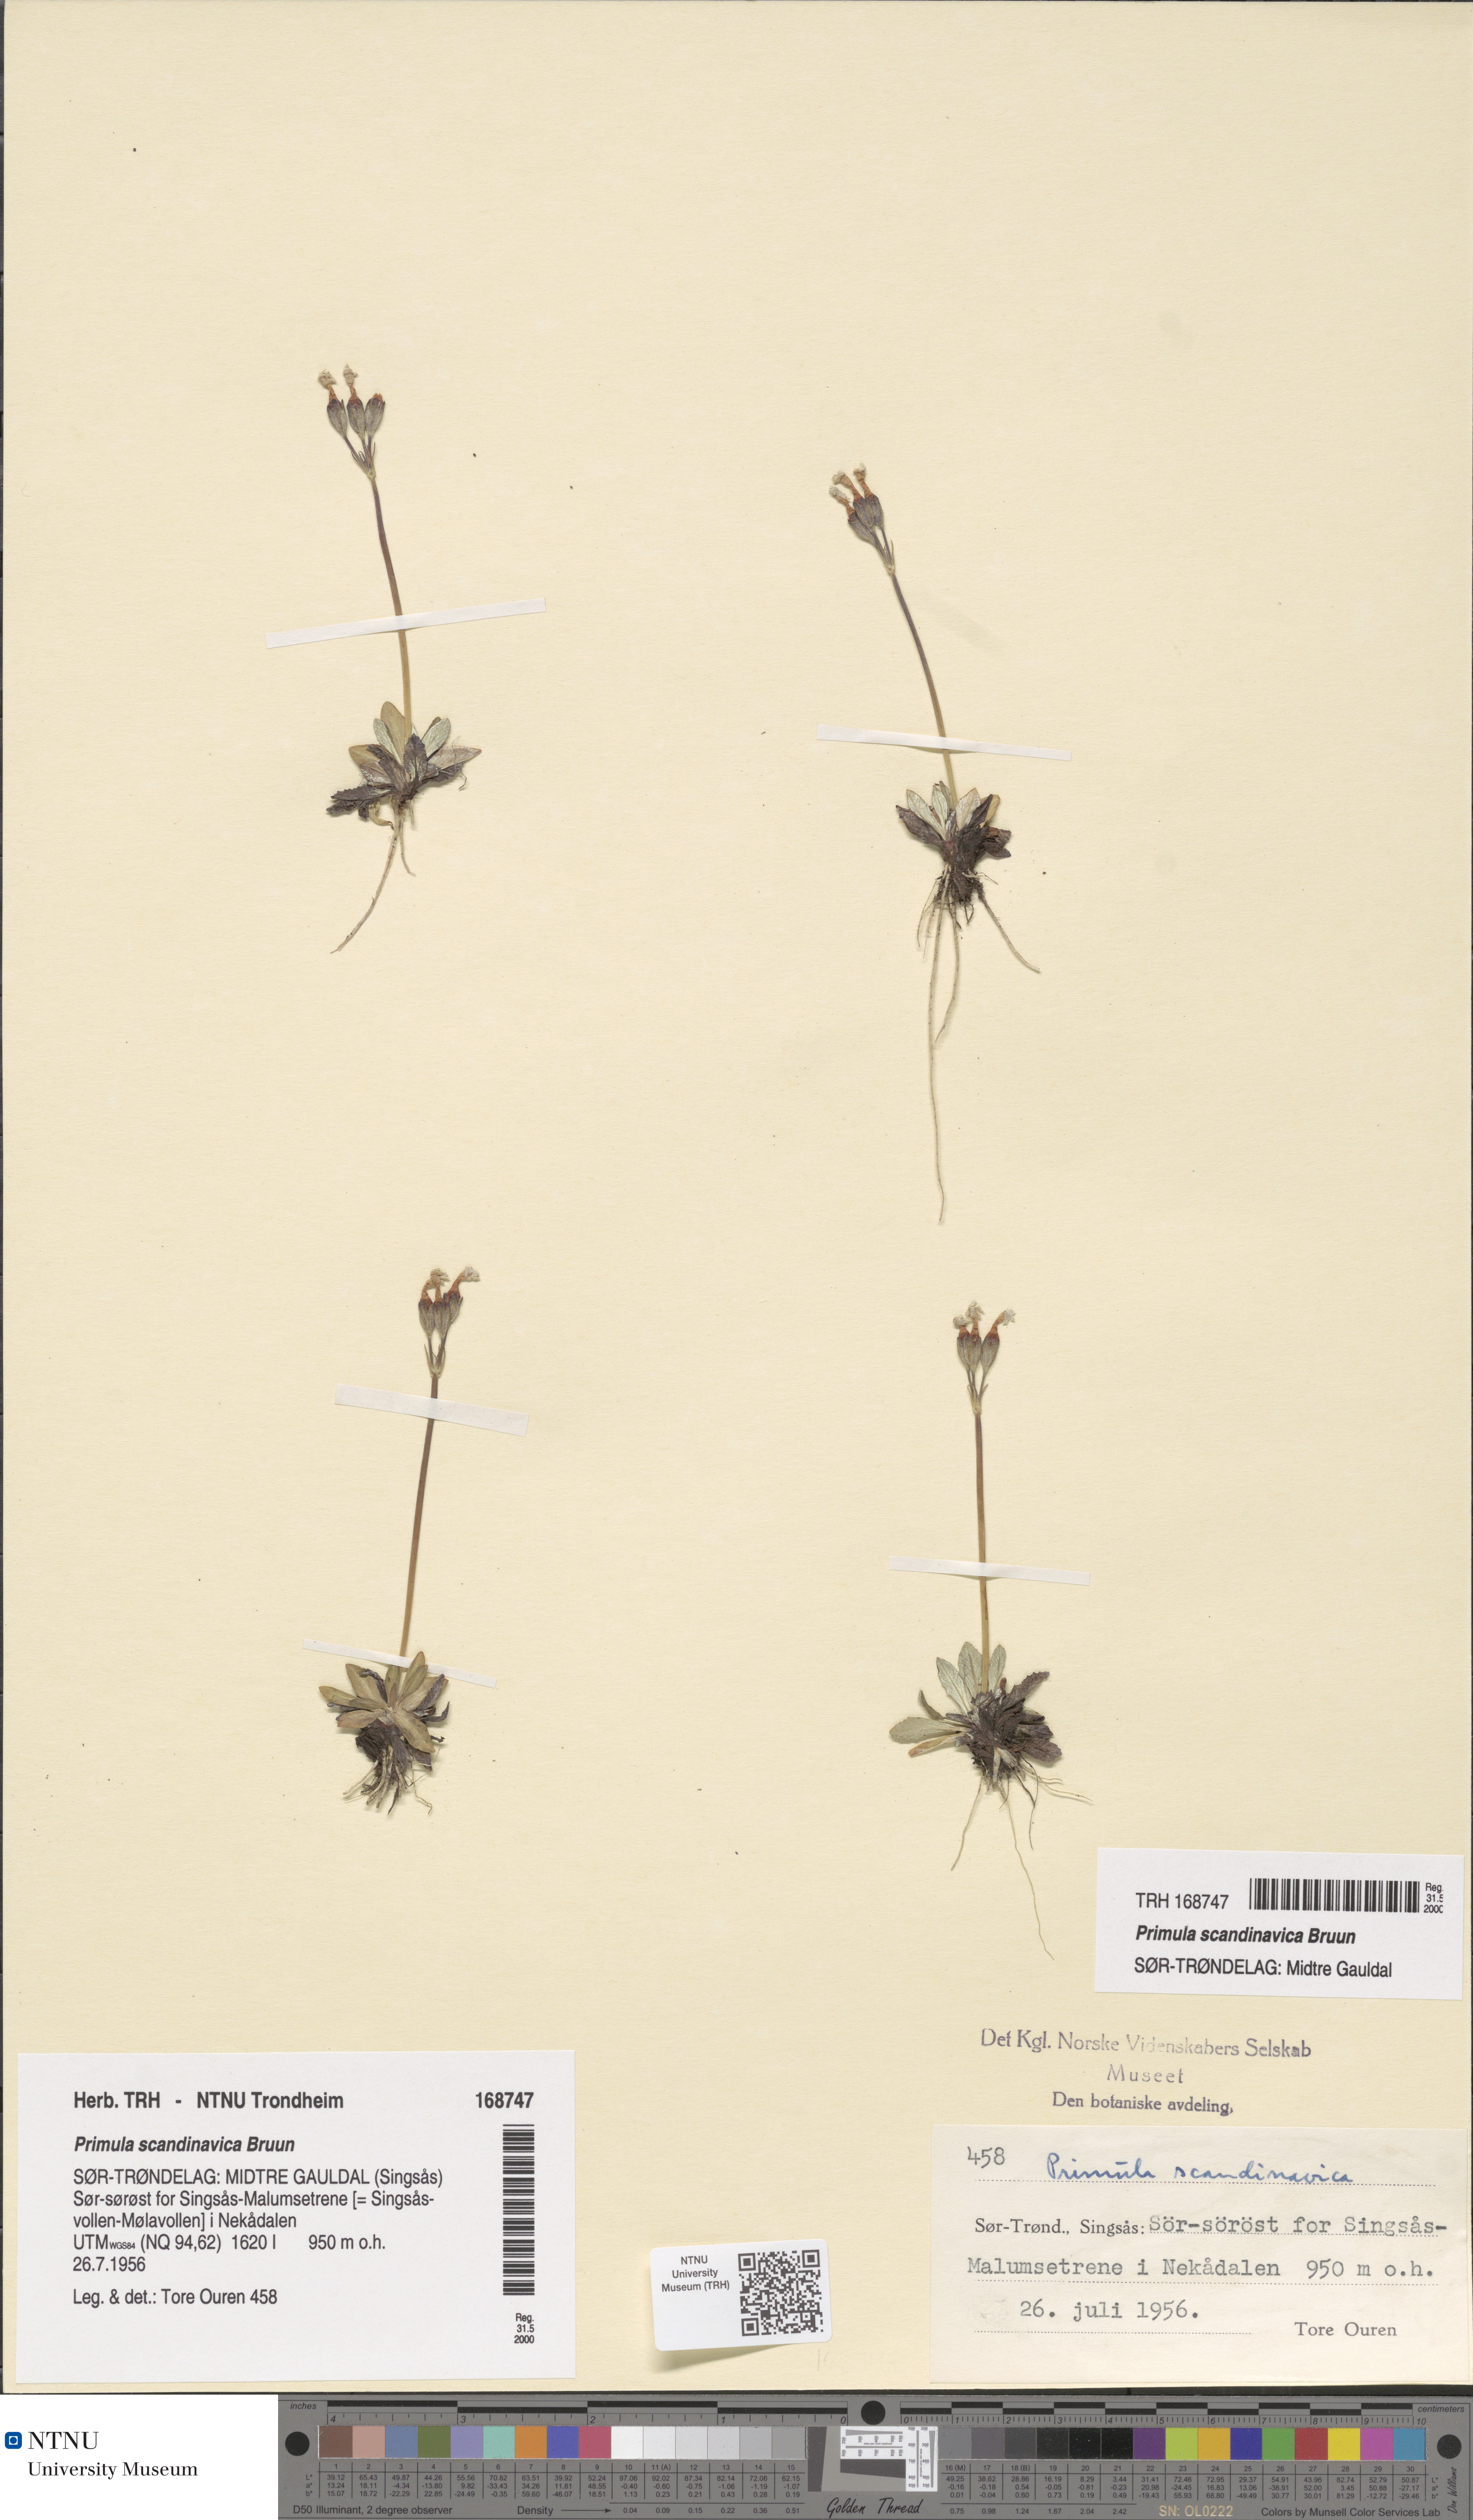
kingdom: Plantae
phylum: Tracheophyta
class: Magnoliopsida
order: Ericales
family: Primulaceae
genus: Primula
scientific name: Primula scandinavica
